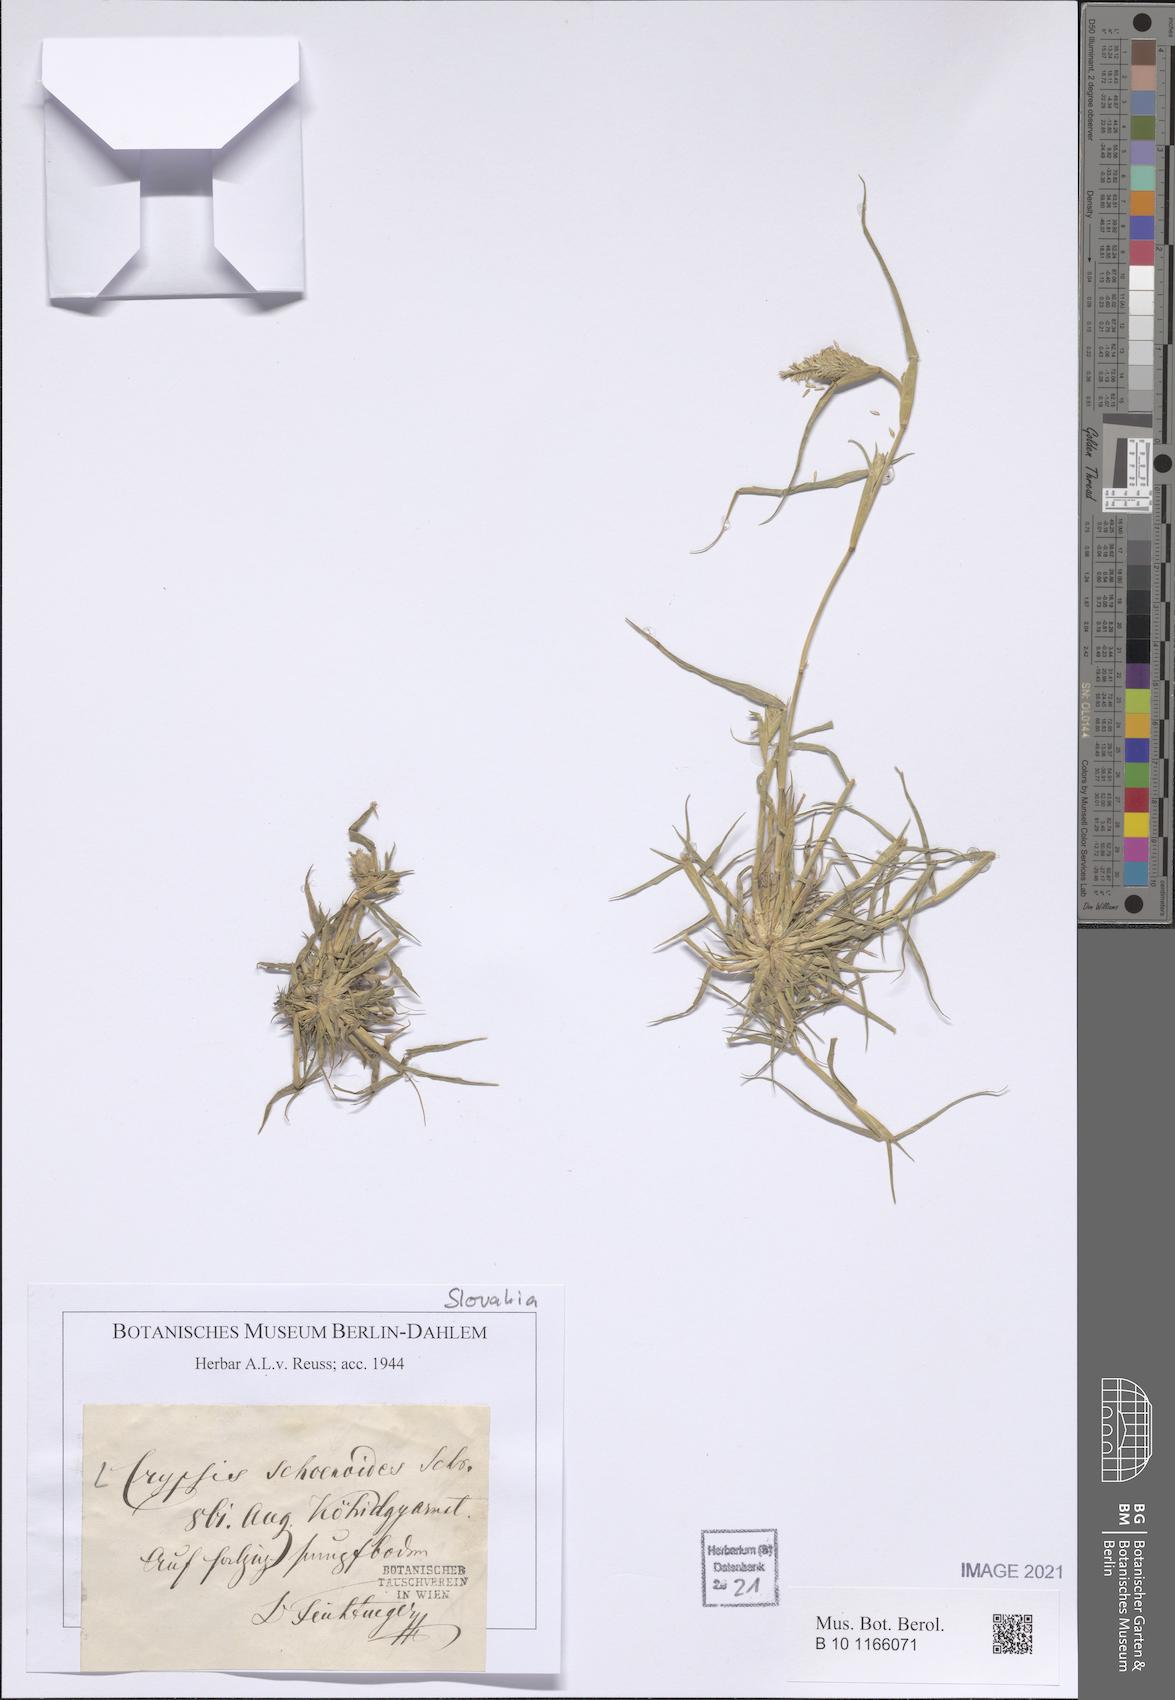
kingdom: Plantae
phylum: Tracheophyta
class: Liliopsida
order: Poales
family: Poaceae
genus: Sporobolus
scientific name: Sporobolus schoenoides
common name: Rush-like timothy
